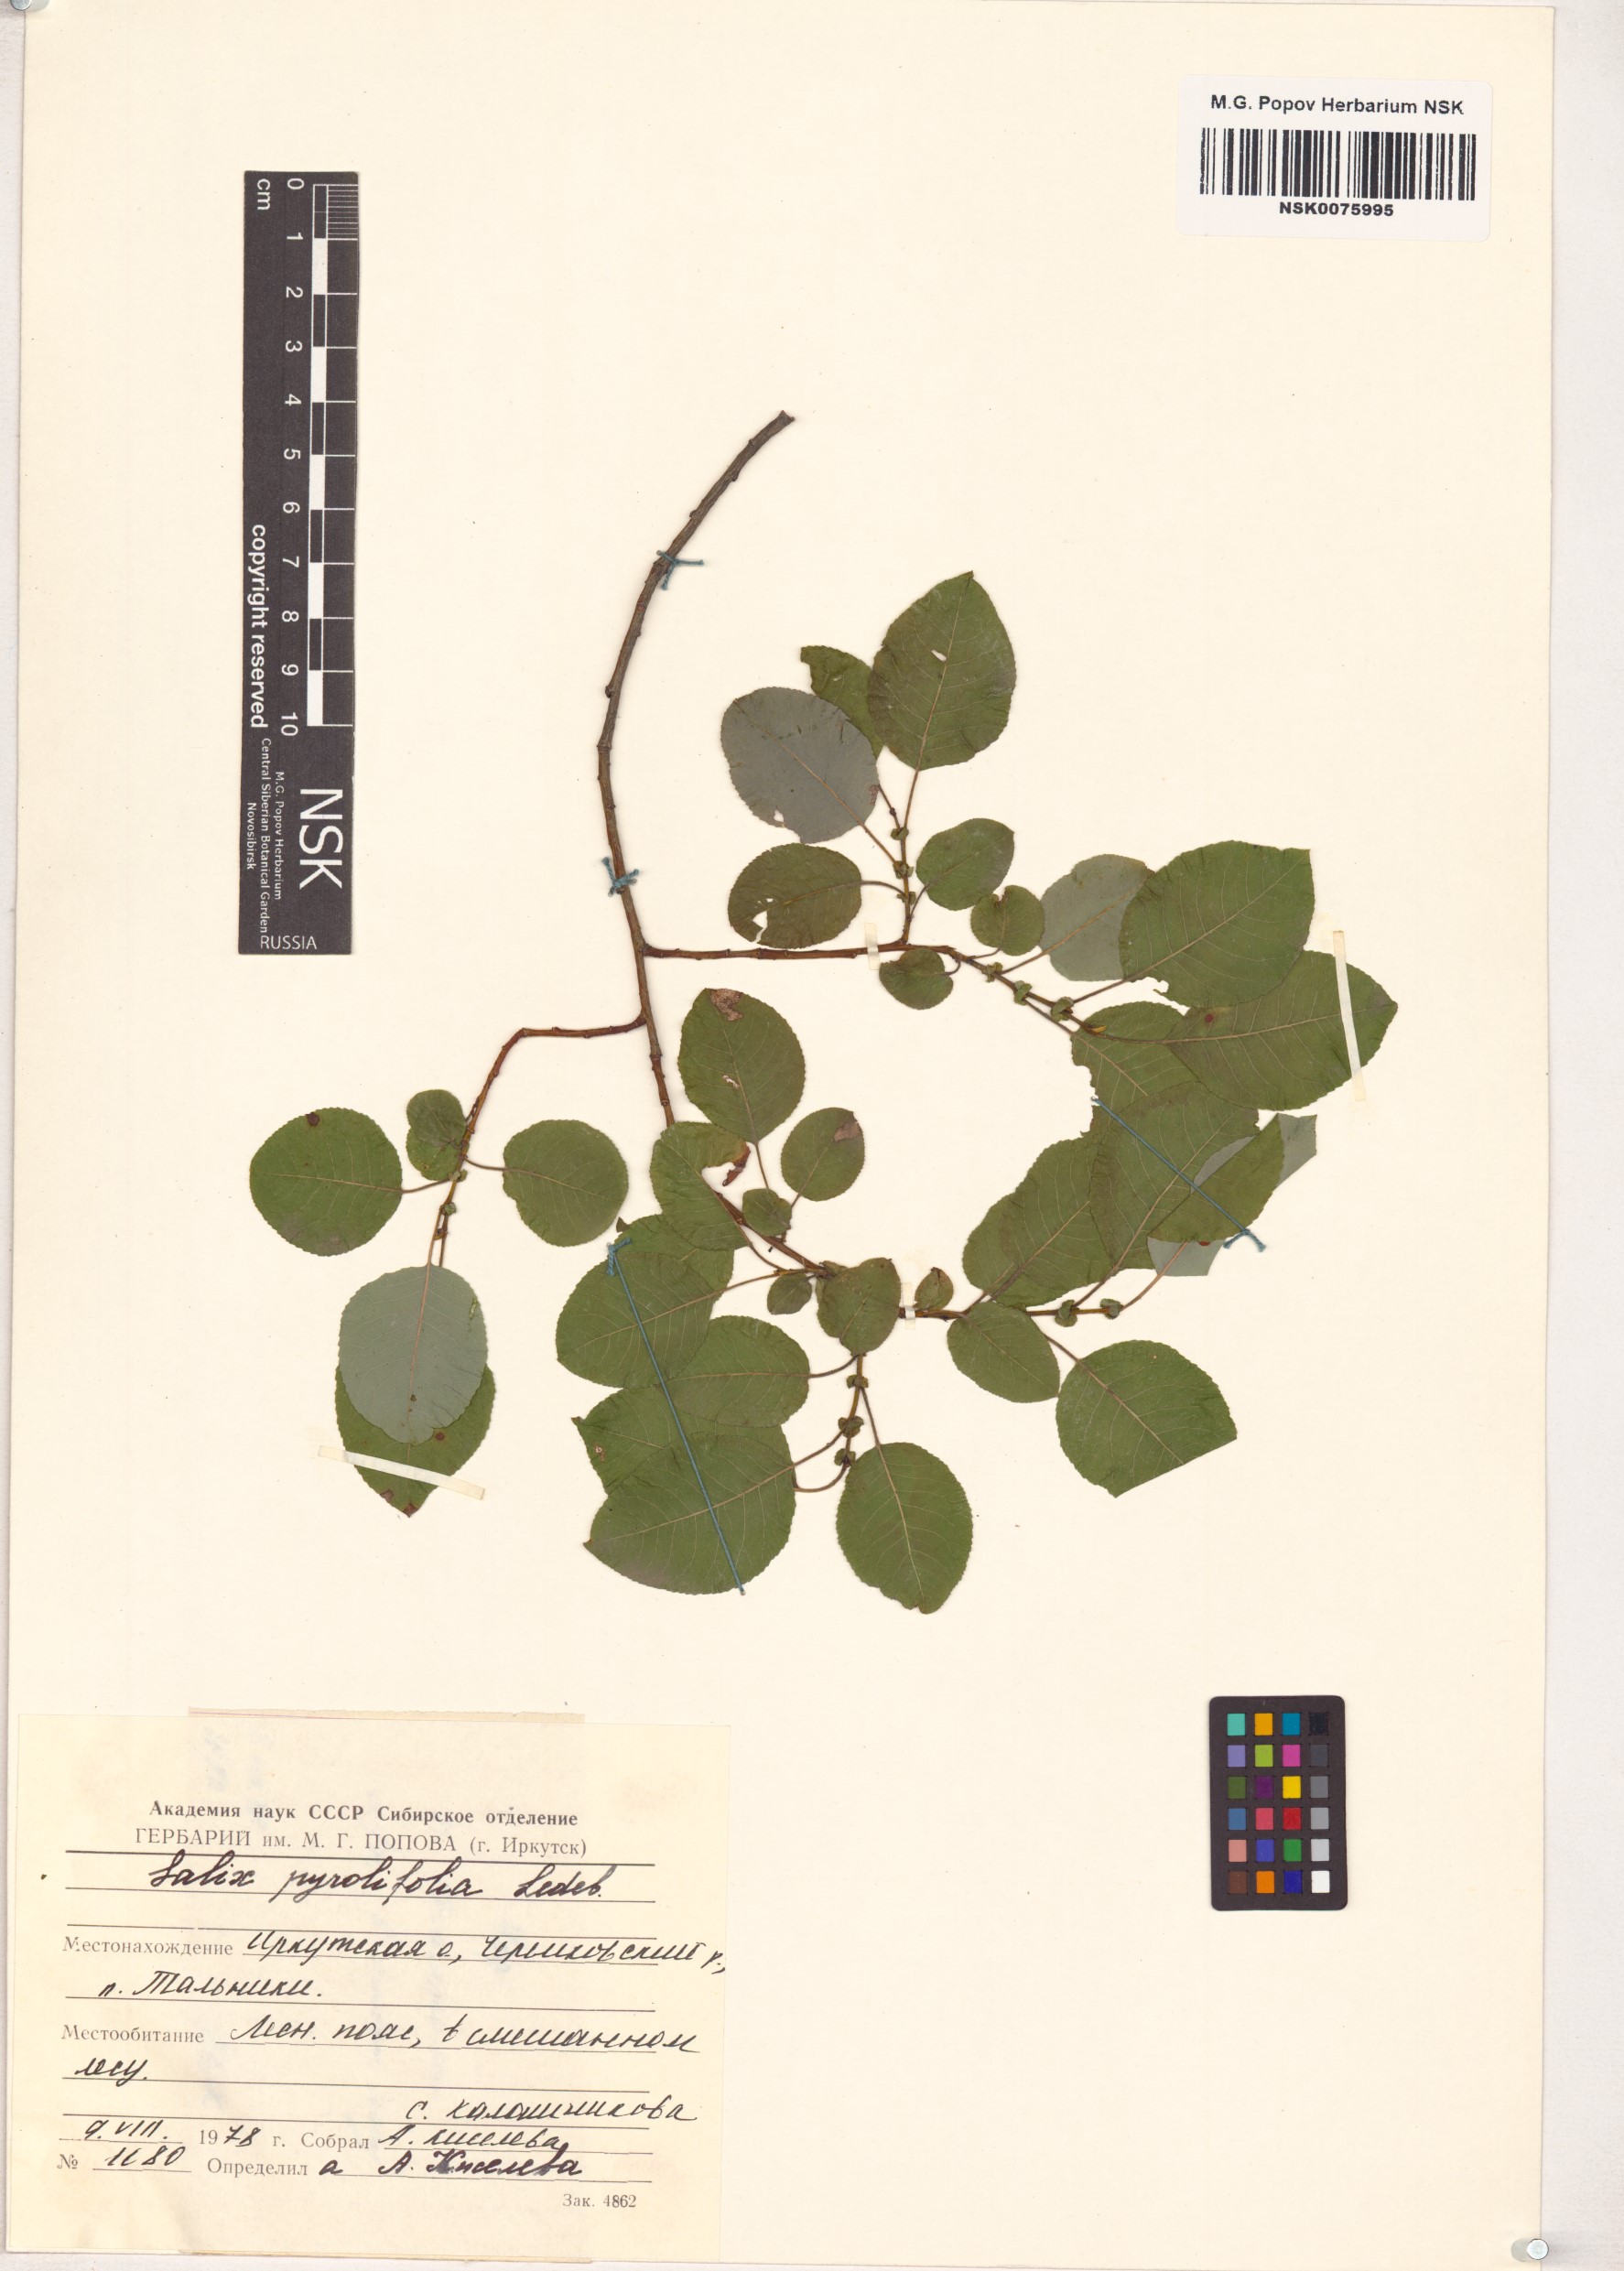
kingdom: Plantae
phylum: Tracheophyta
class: Magnoliopsida
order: Malpighiales
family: Salicaceae
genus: Salix
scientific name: Salix pyrolifolia
